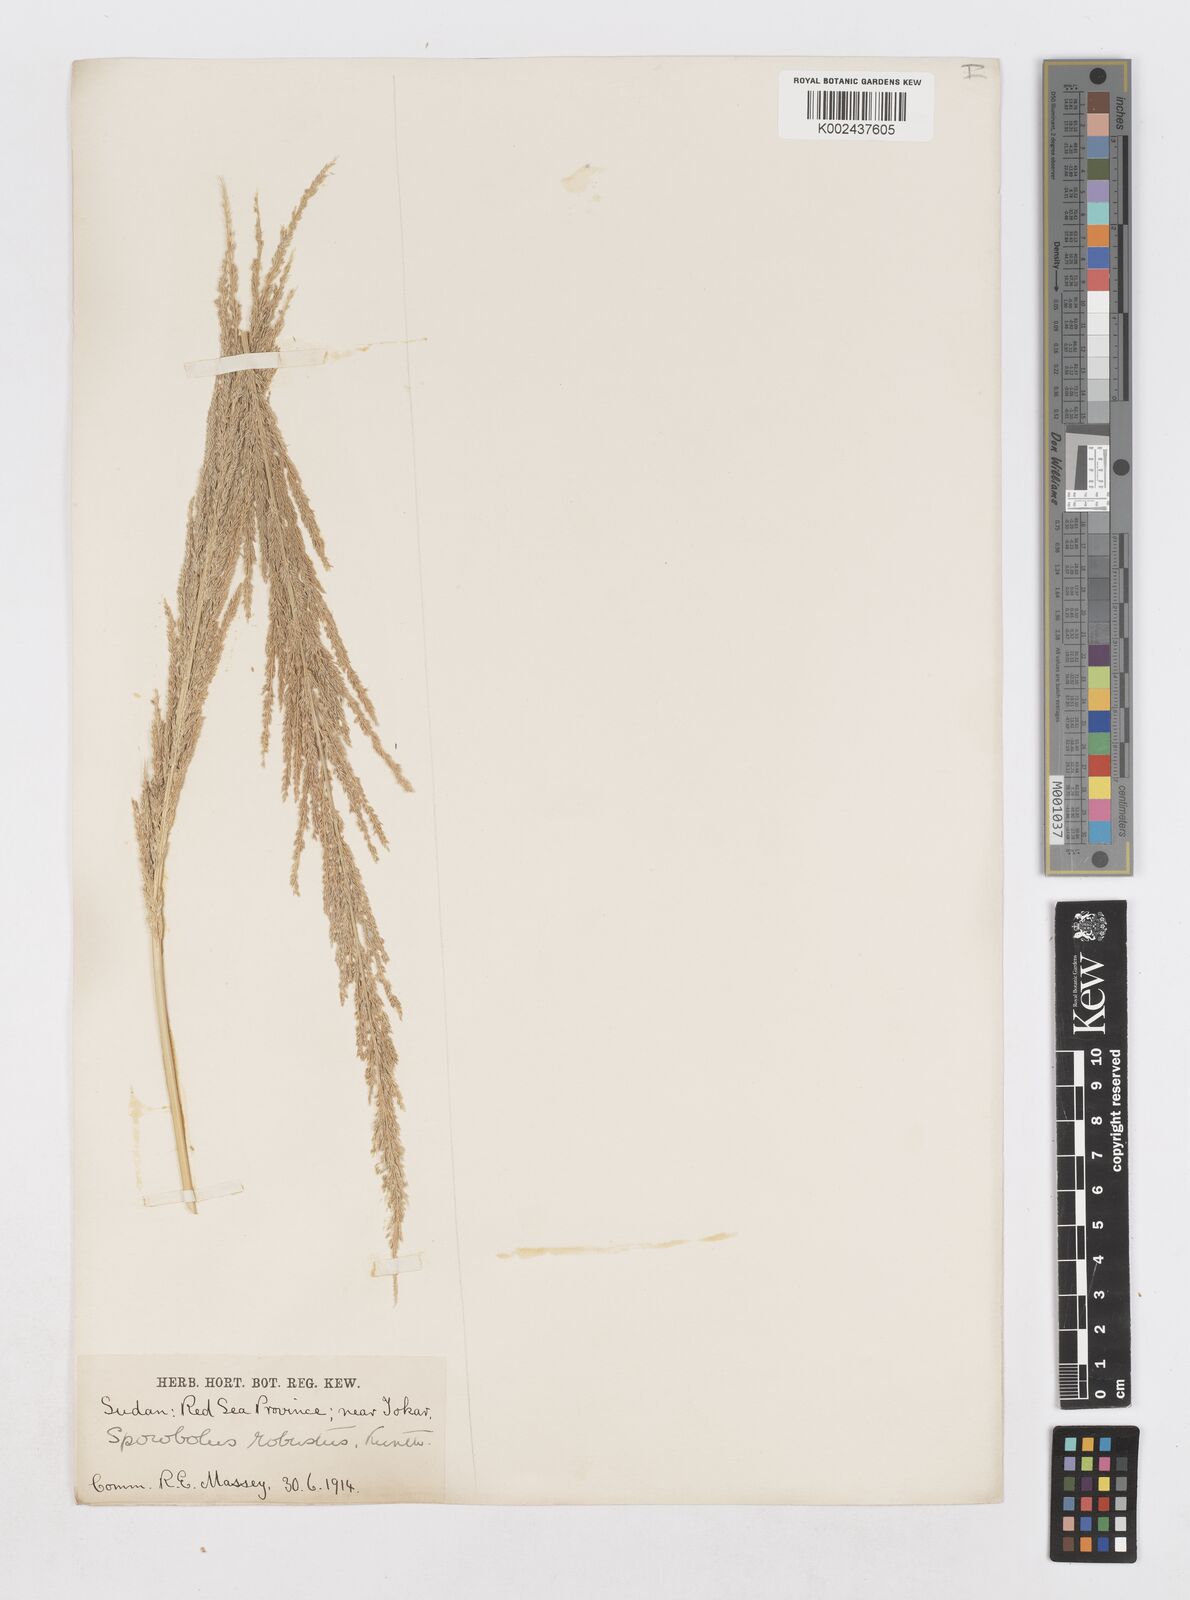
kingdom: Plantae
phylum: Tracheophyta
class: Liliopsida
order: Poales
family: Poaceae
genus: Sporobolus
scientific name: Sporobolus consimilis
